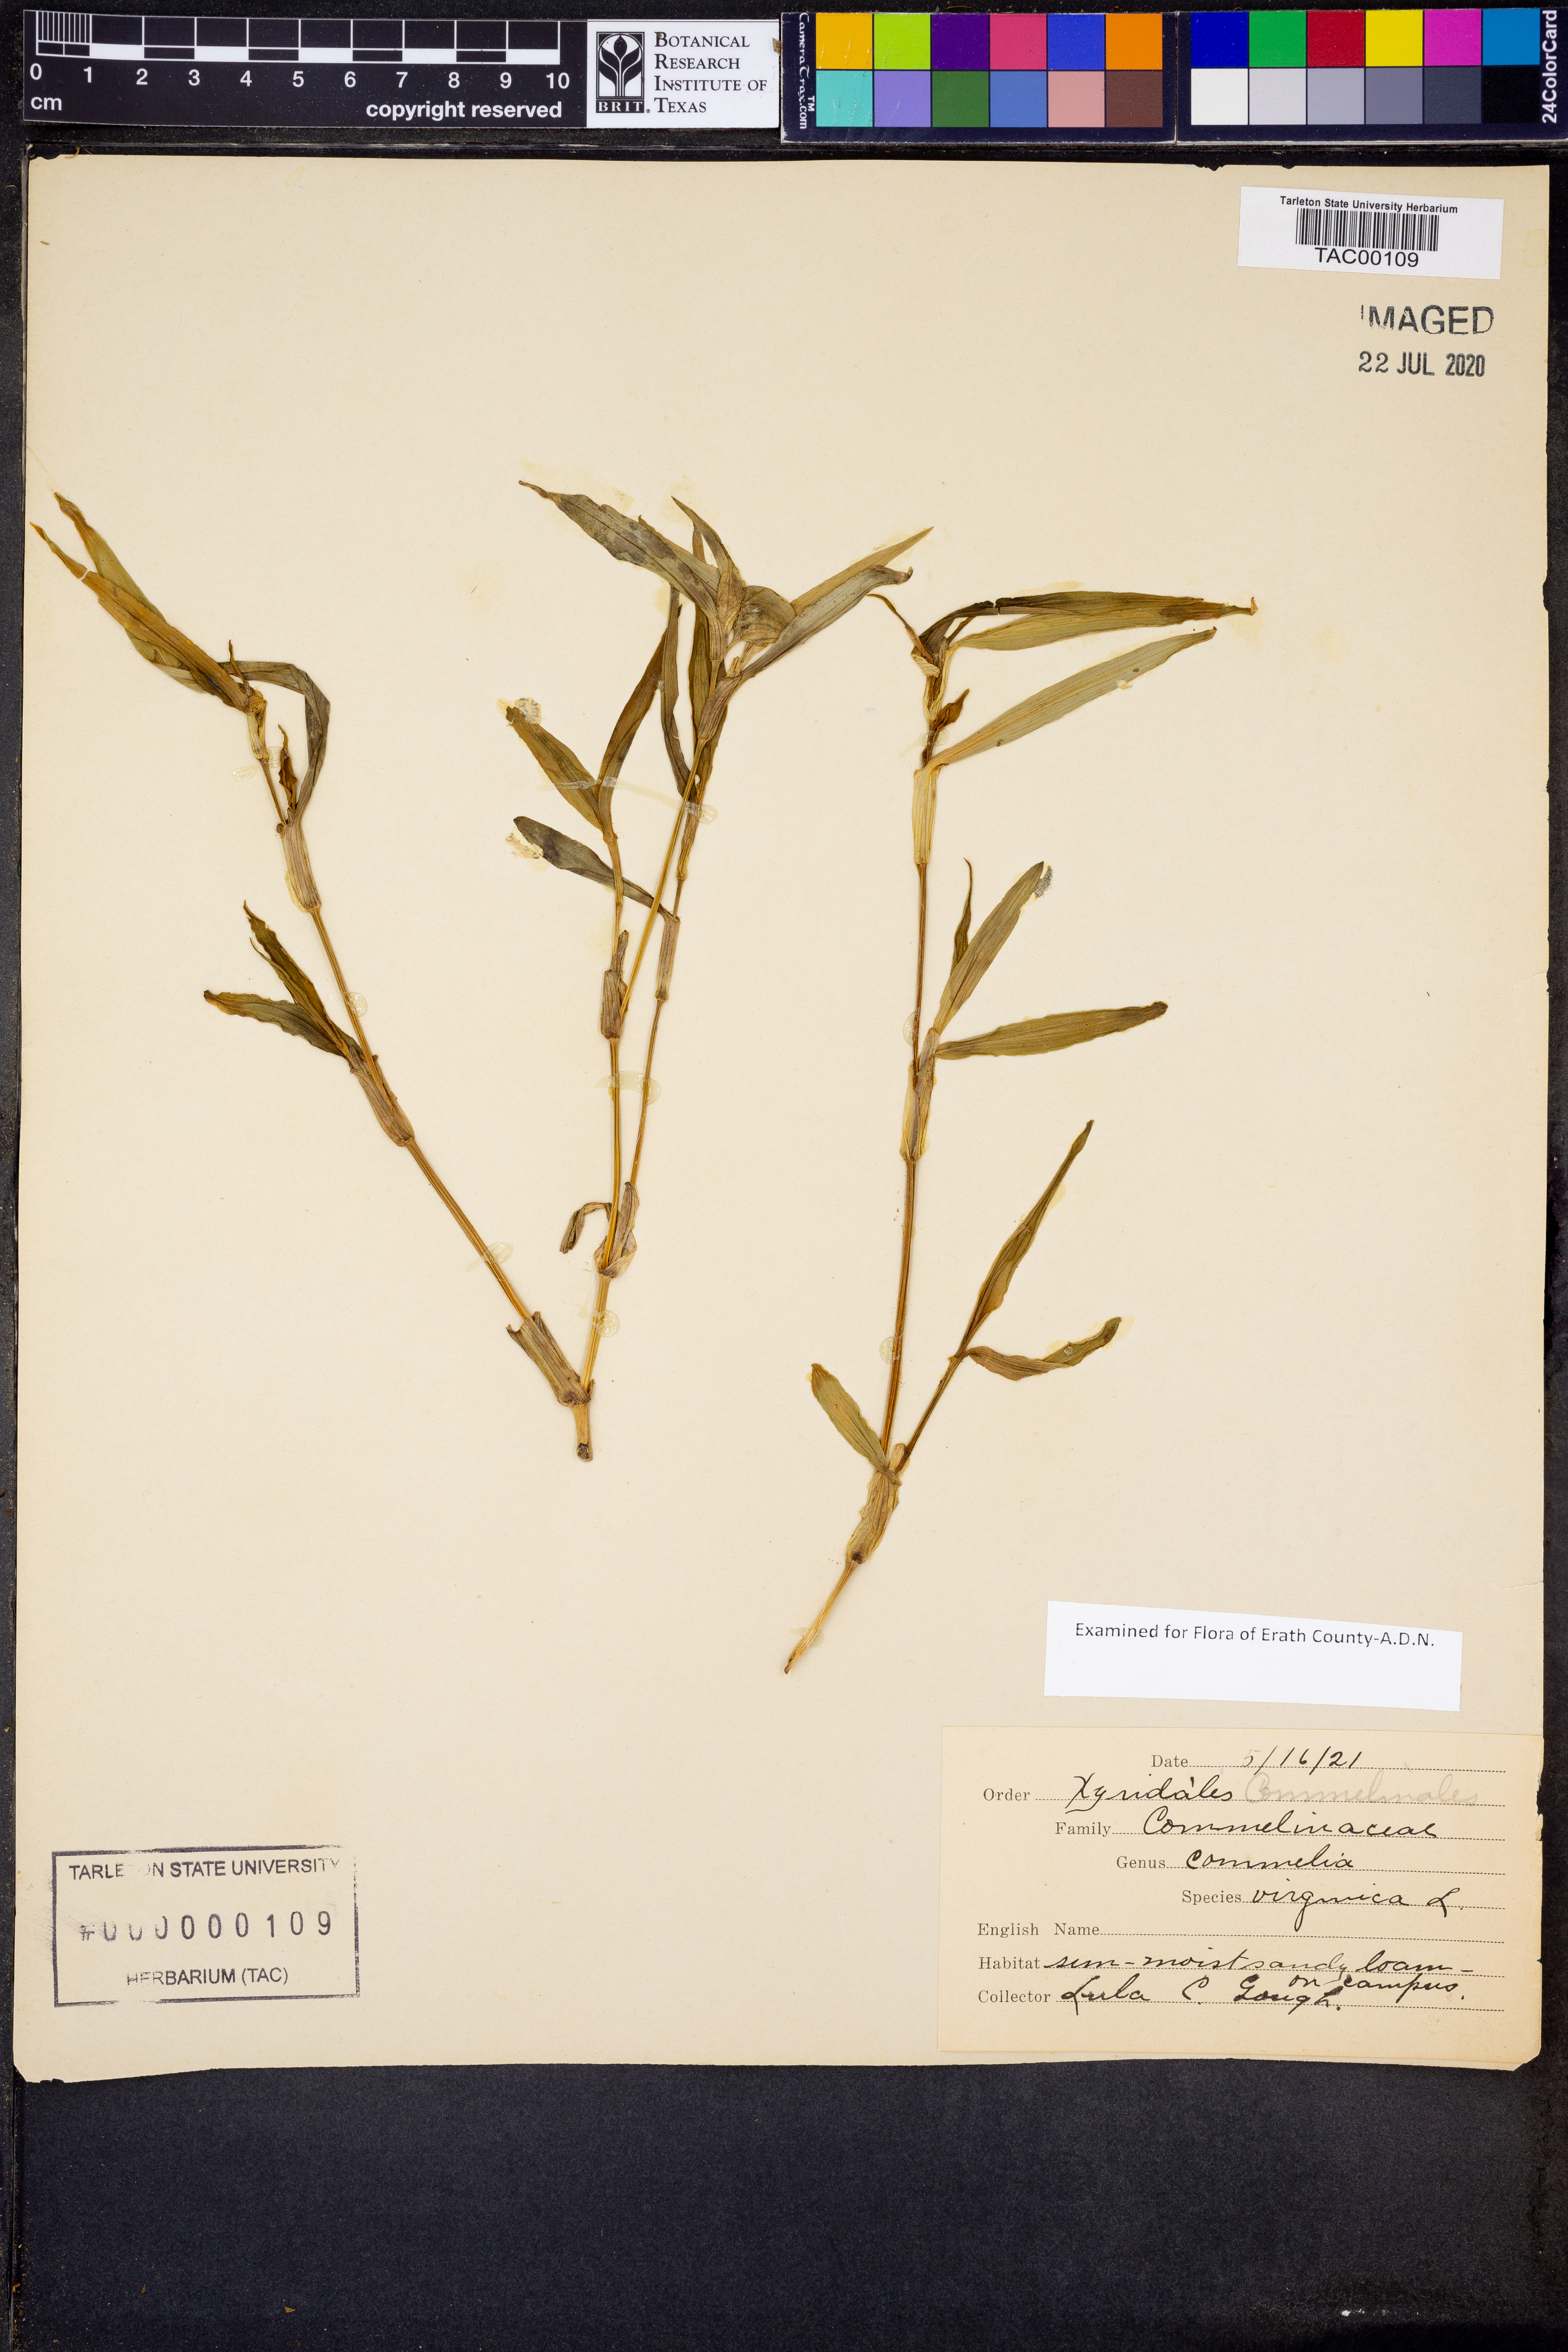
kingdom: Plantae
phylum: Tracheophyta
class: Liliopsida
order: Commelinales
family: Commelinaceae
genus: Commelina
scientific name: Commelina virginica
